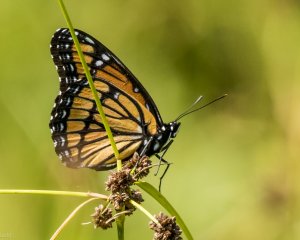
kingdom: Animalia
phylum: Arthropoda
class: Insecta
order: Lepidoptera
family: Nymphalidae
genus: Limenitis
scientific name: Limenitis archippus
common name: Viceroy
